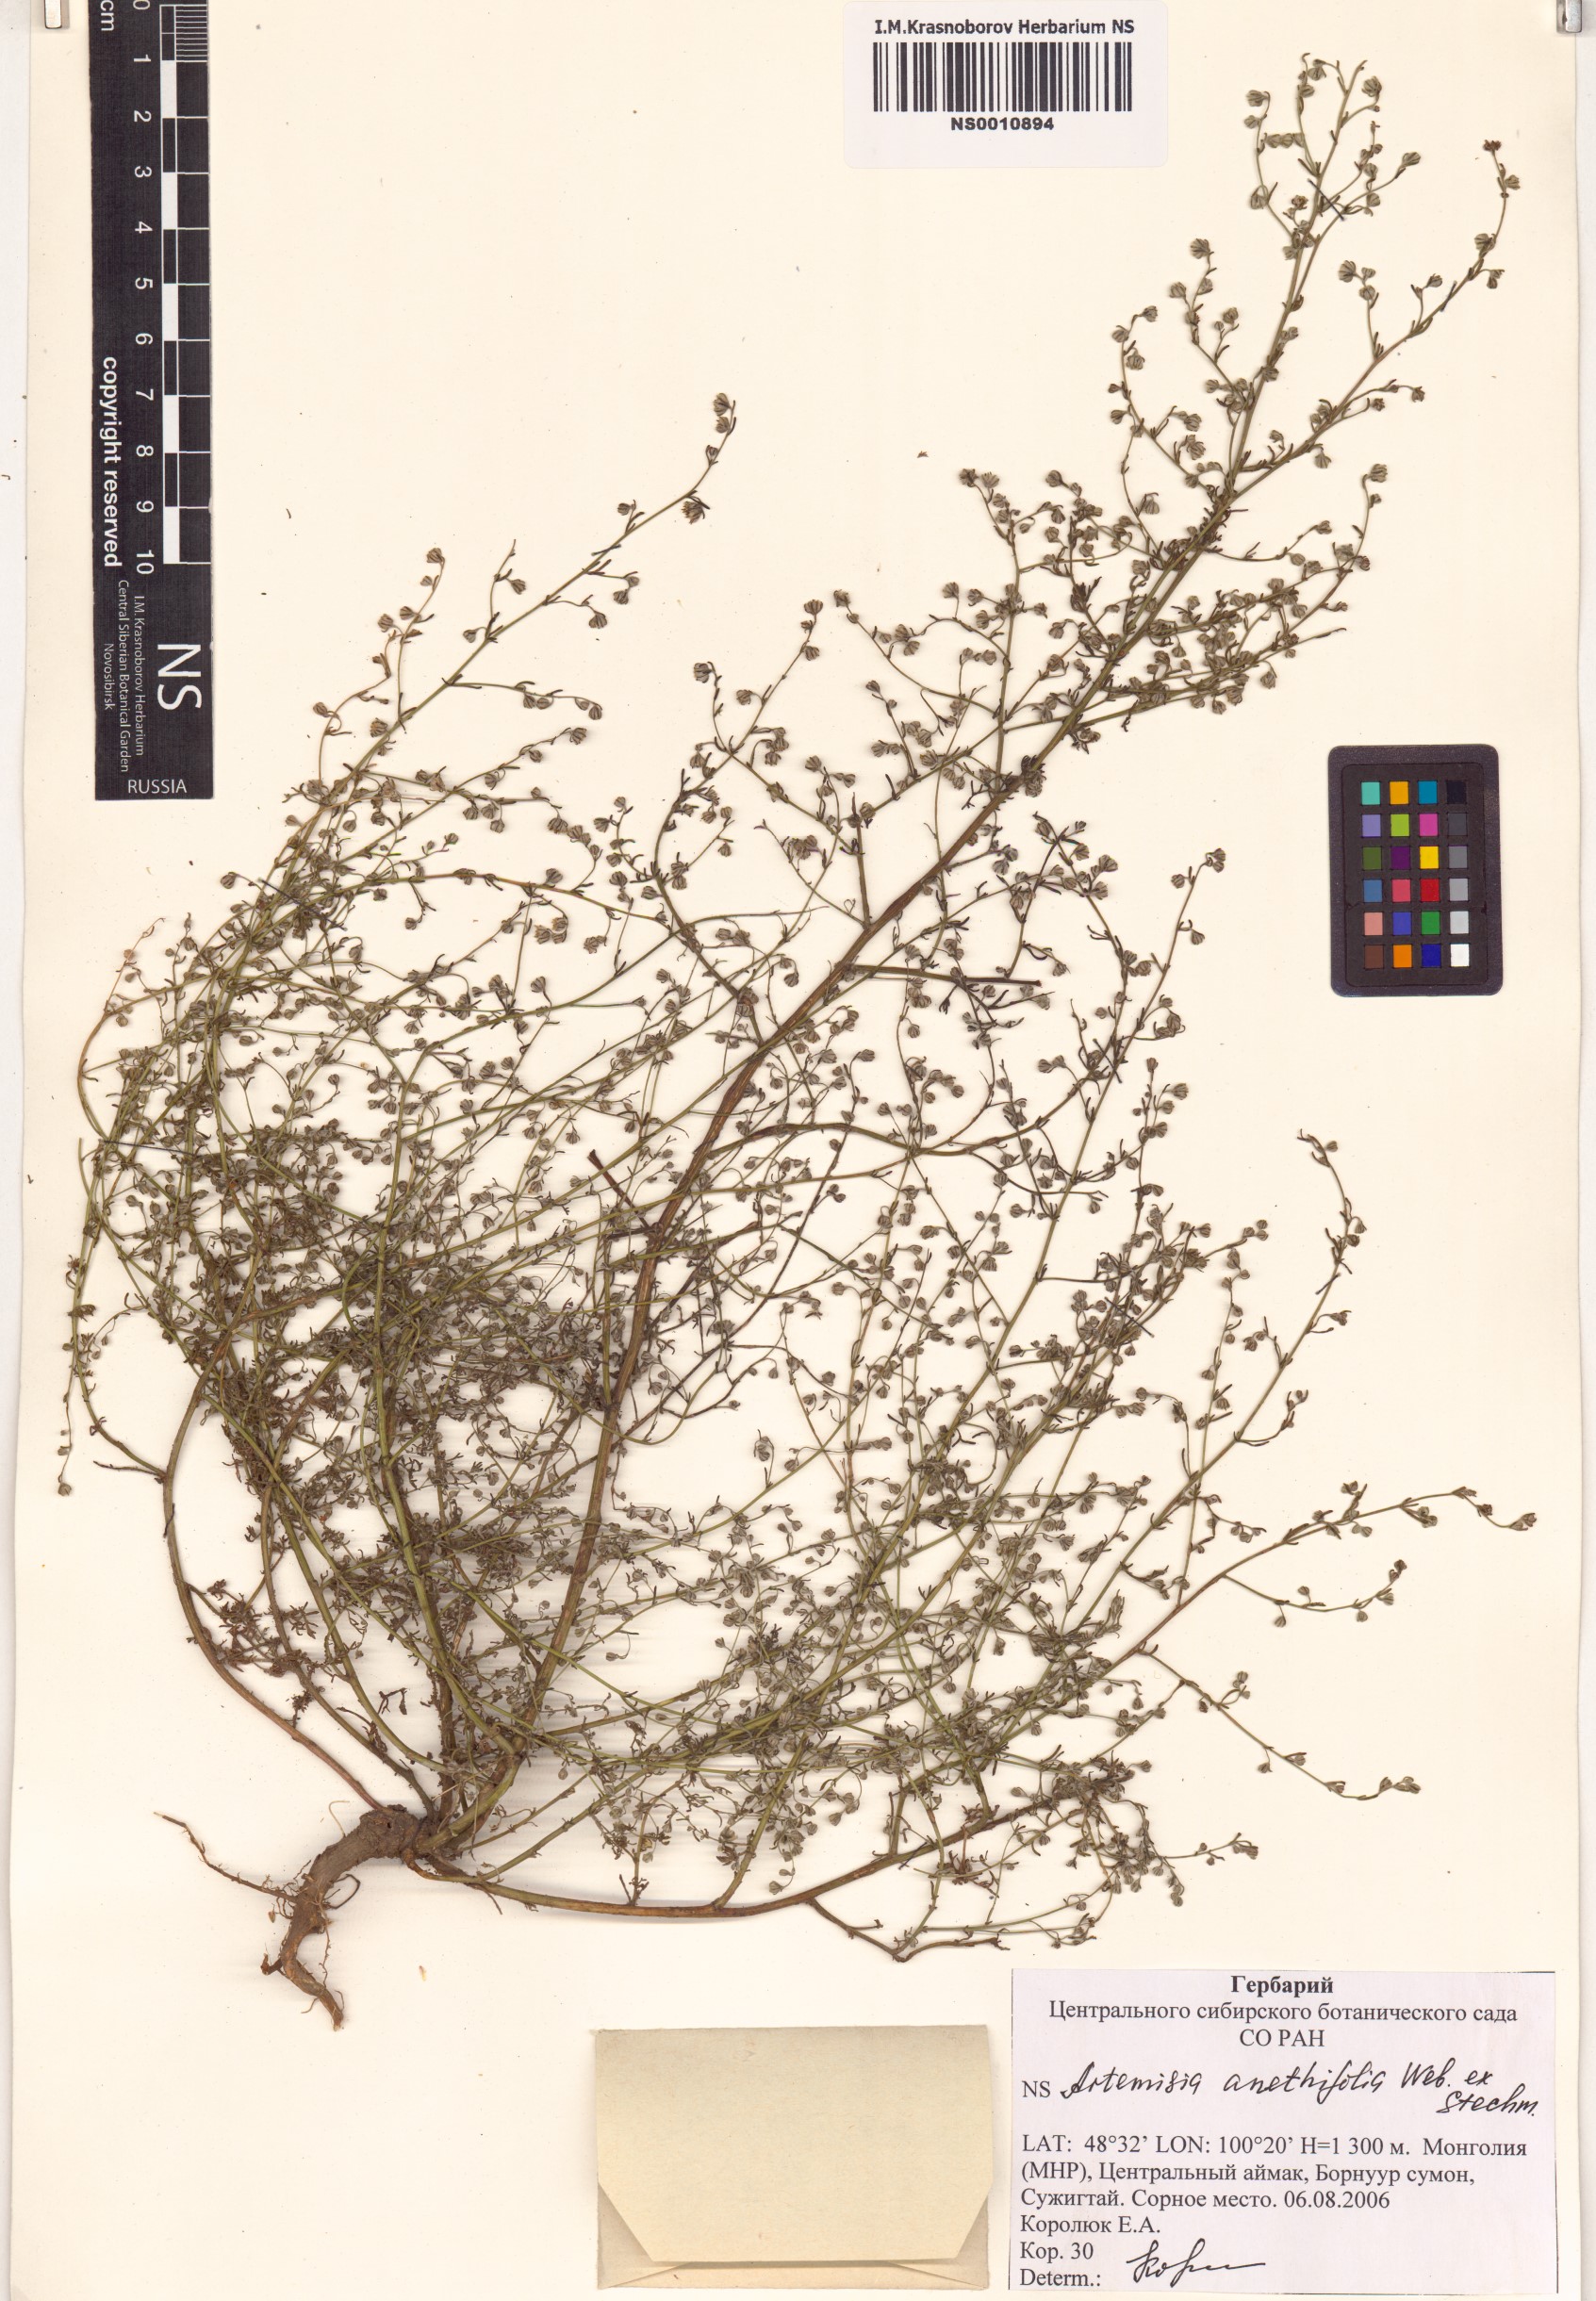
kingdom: Plantae
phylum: Tracheophyta
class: Magnoliopsida
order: Asterales
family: Asteraceae
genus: Artemisia
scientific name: Artemisia anethifolia
